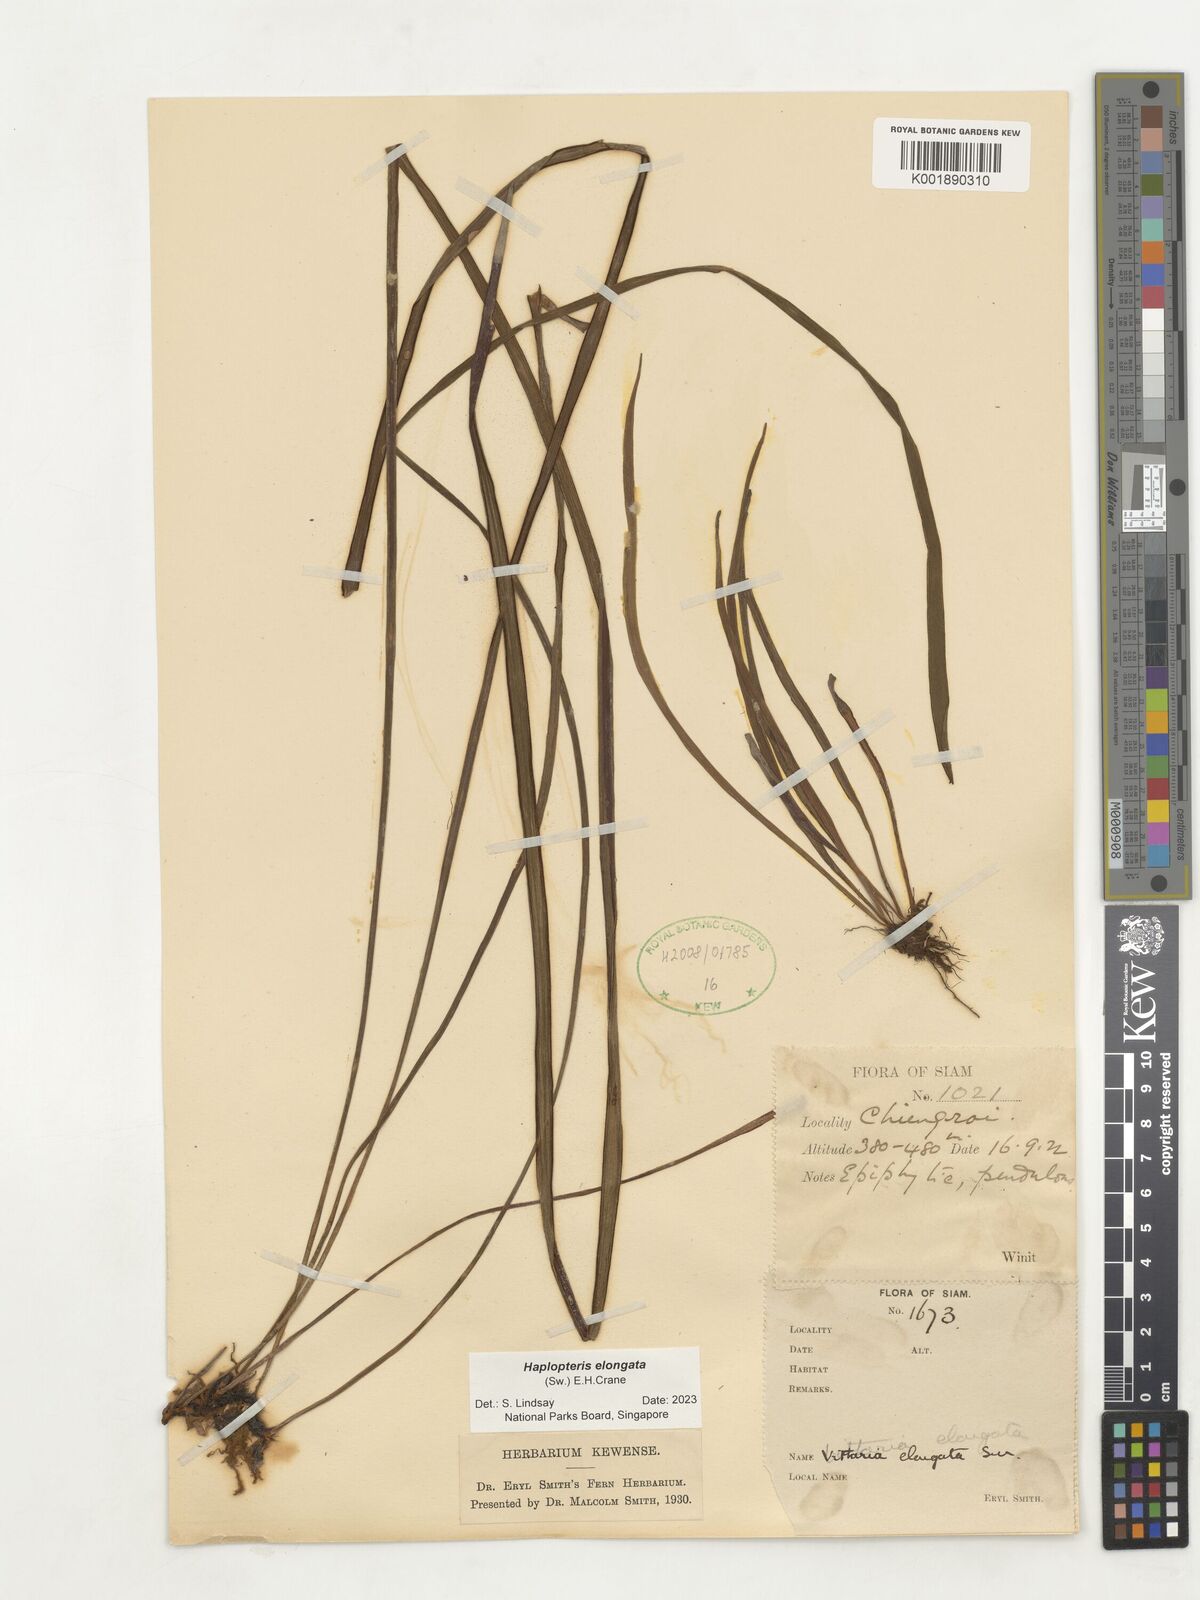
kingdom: Plantae
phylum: Tracheophyta
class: Polypodiopsida
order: Polypodiales
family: Pteridaceae
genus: Haplopteris
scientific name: Haplopteris elongata
